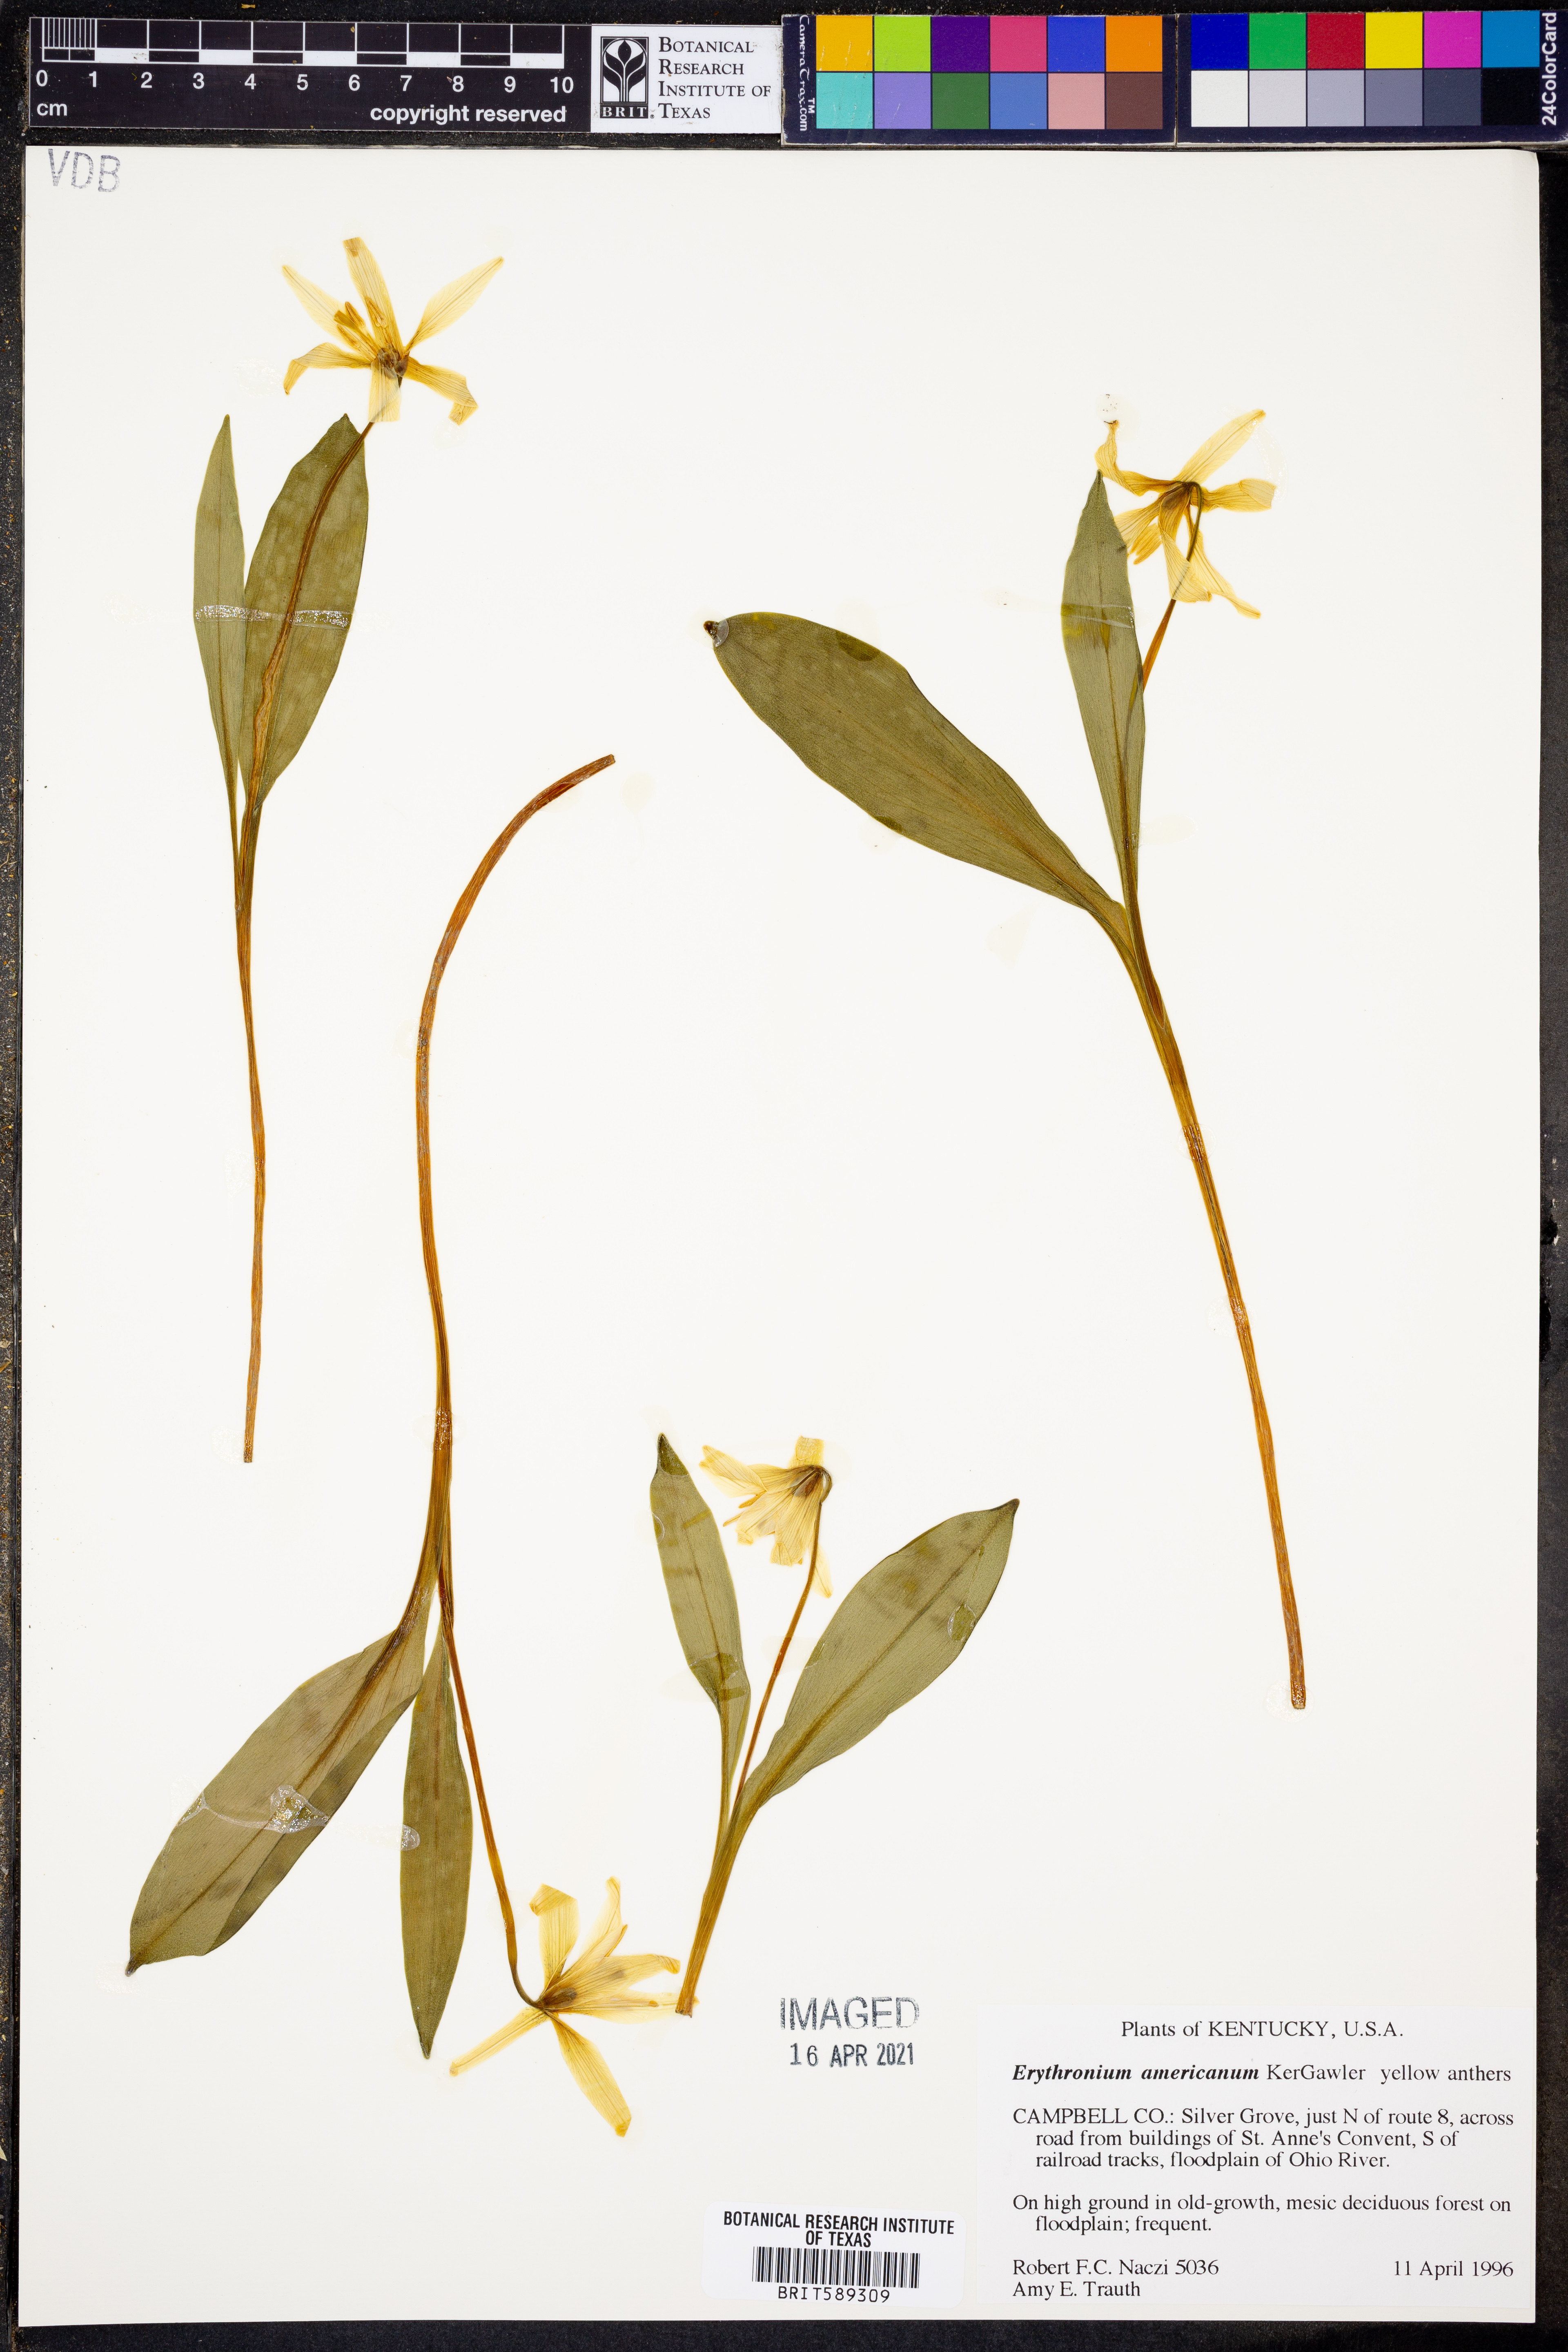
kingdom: Plantae
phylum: Tracheophyta
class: Liliopsida
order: Liliales
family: Liliaceae
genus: Erythronium
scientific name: Erythronium americanum
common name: Yellow adder's-tongue
